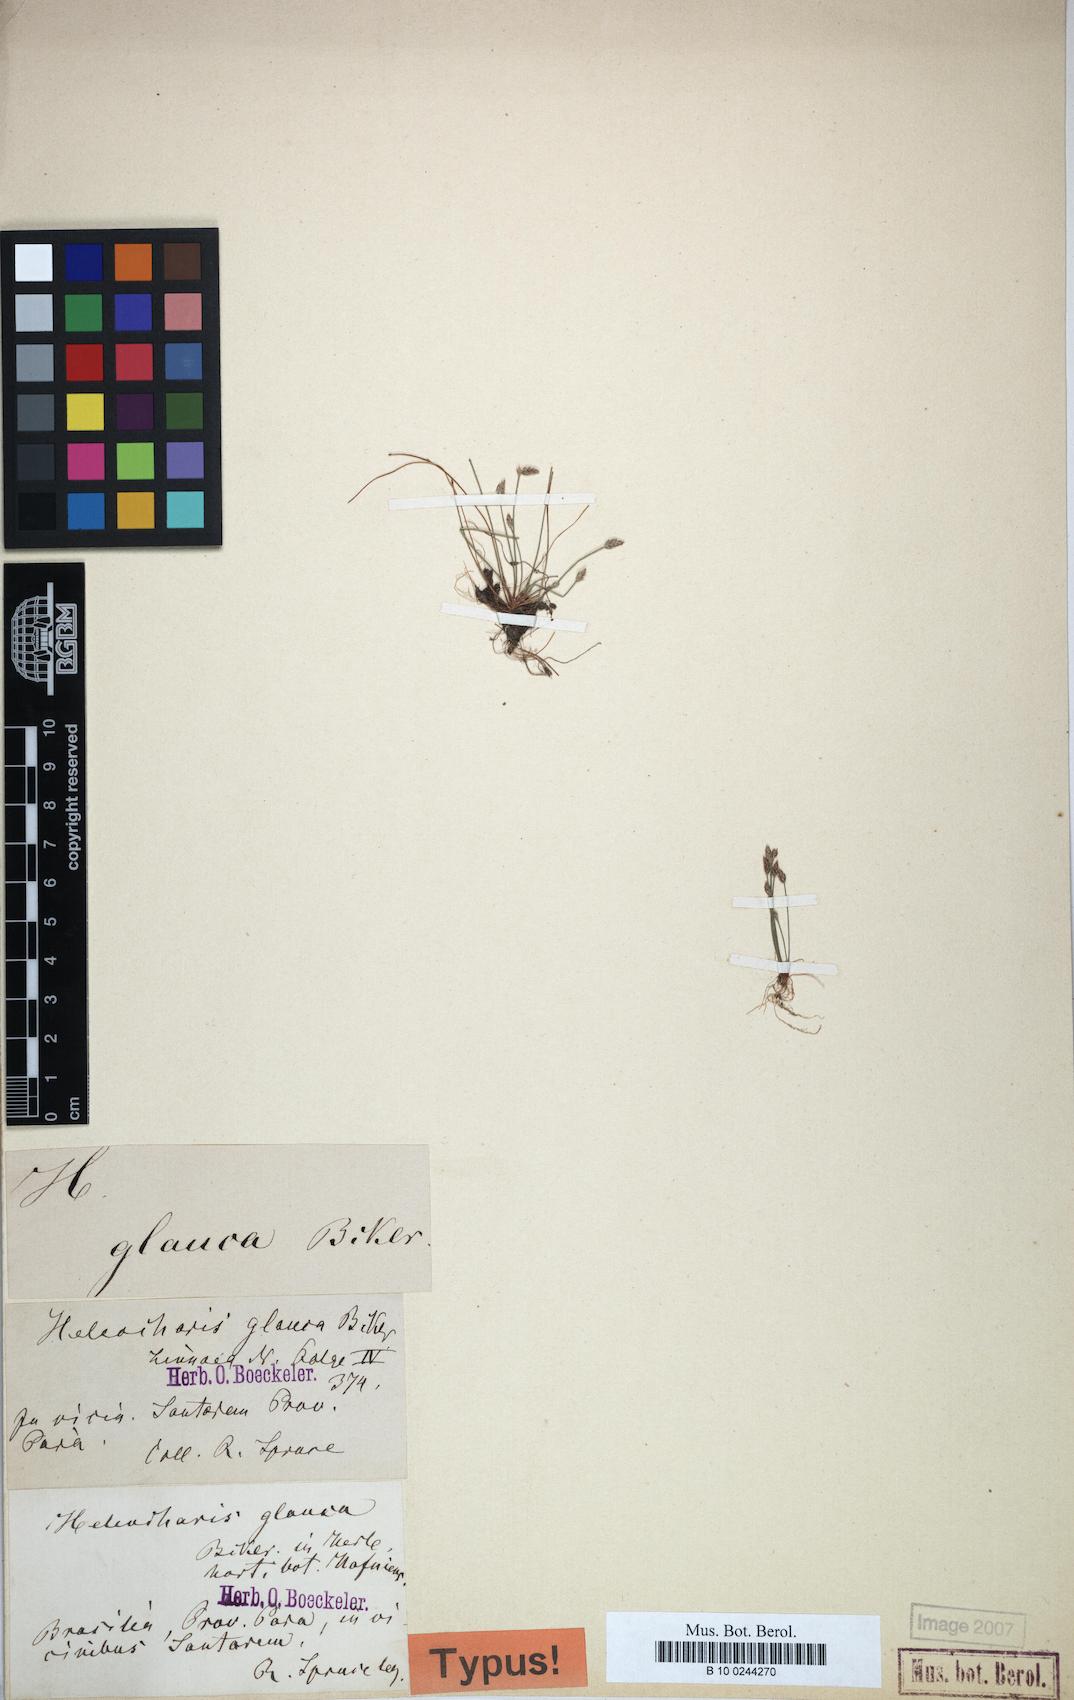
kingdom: Plantae
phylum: Tracheophyta
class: Liliopsida
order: Poales
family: Cyperaceae
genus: Eleocharis
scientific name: Eleocharis glauca
